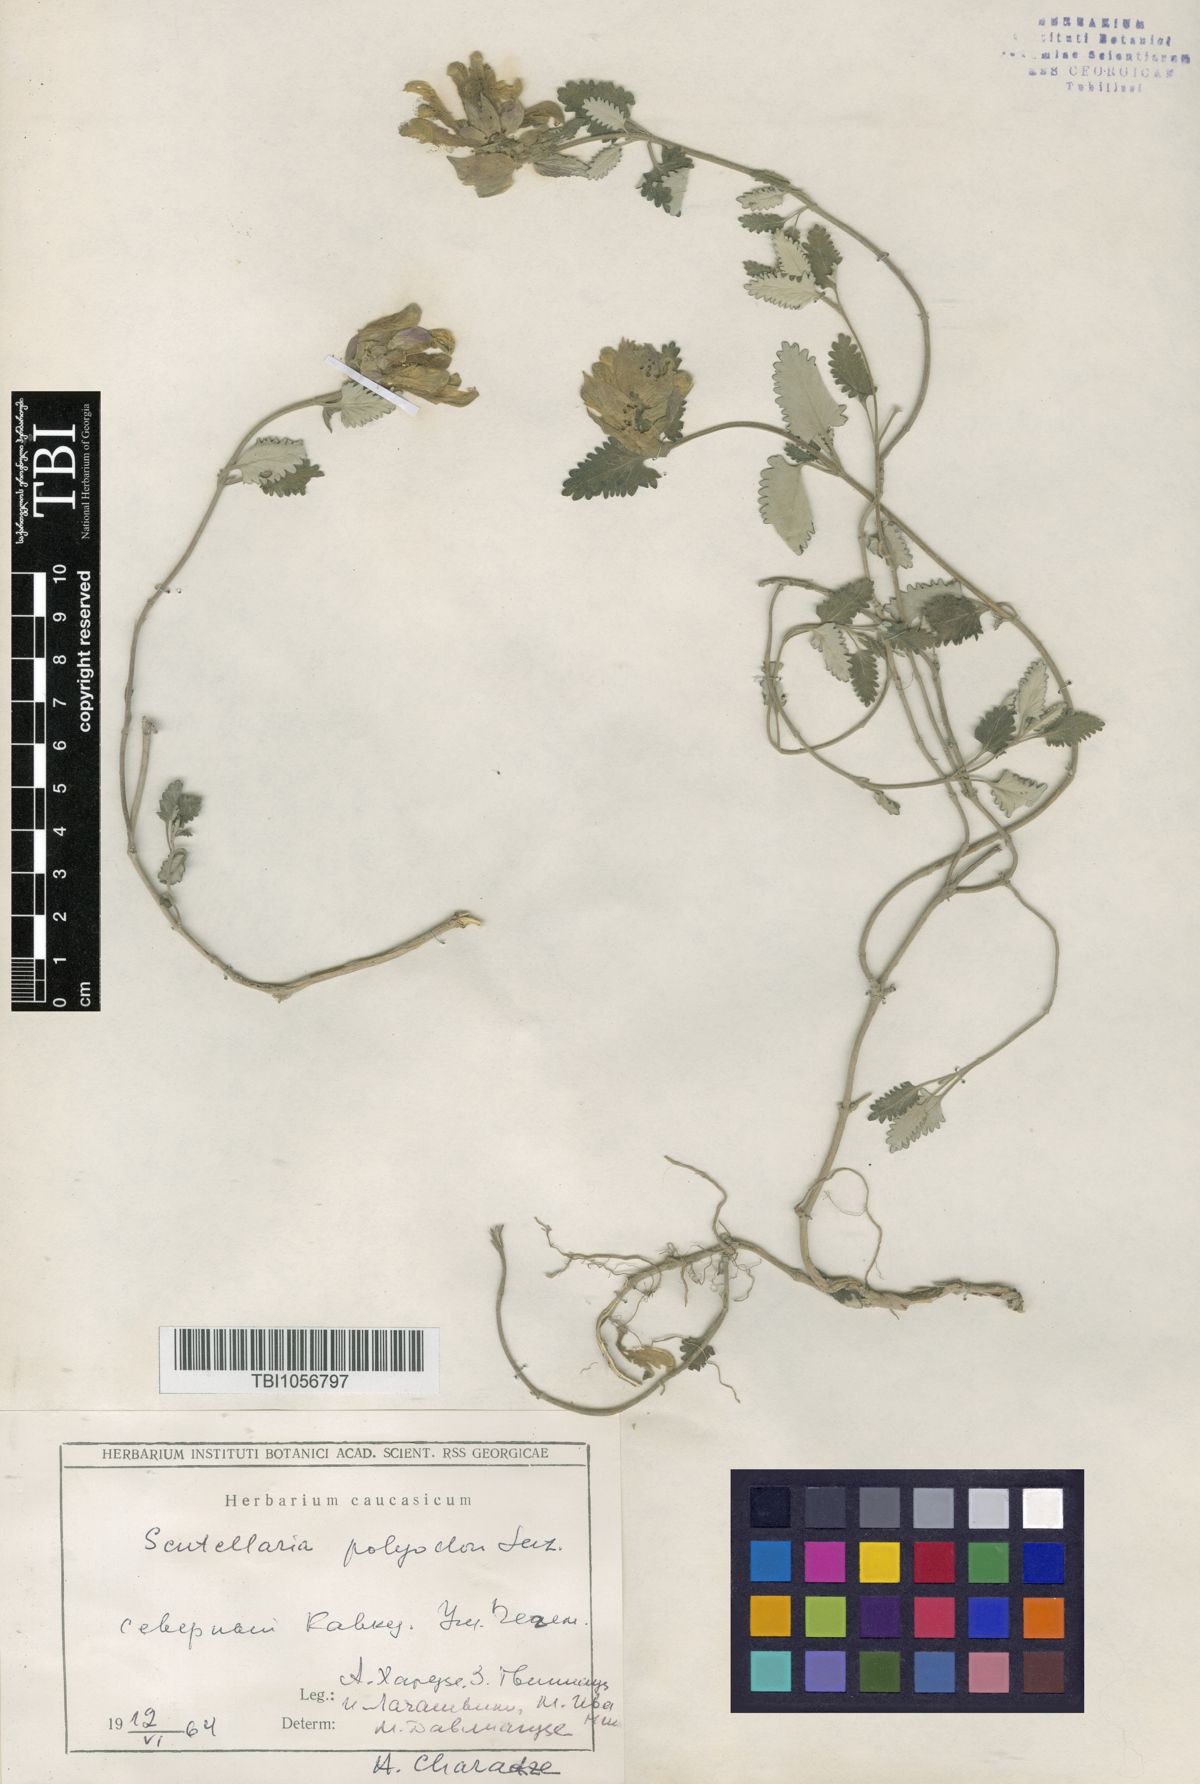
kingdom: Plantae
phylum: Tracheophyta
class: Magnoliopsida
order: Lamiales
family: Lamiaceae
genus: Scutellaria
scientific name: Scutellaria caucasica
